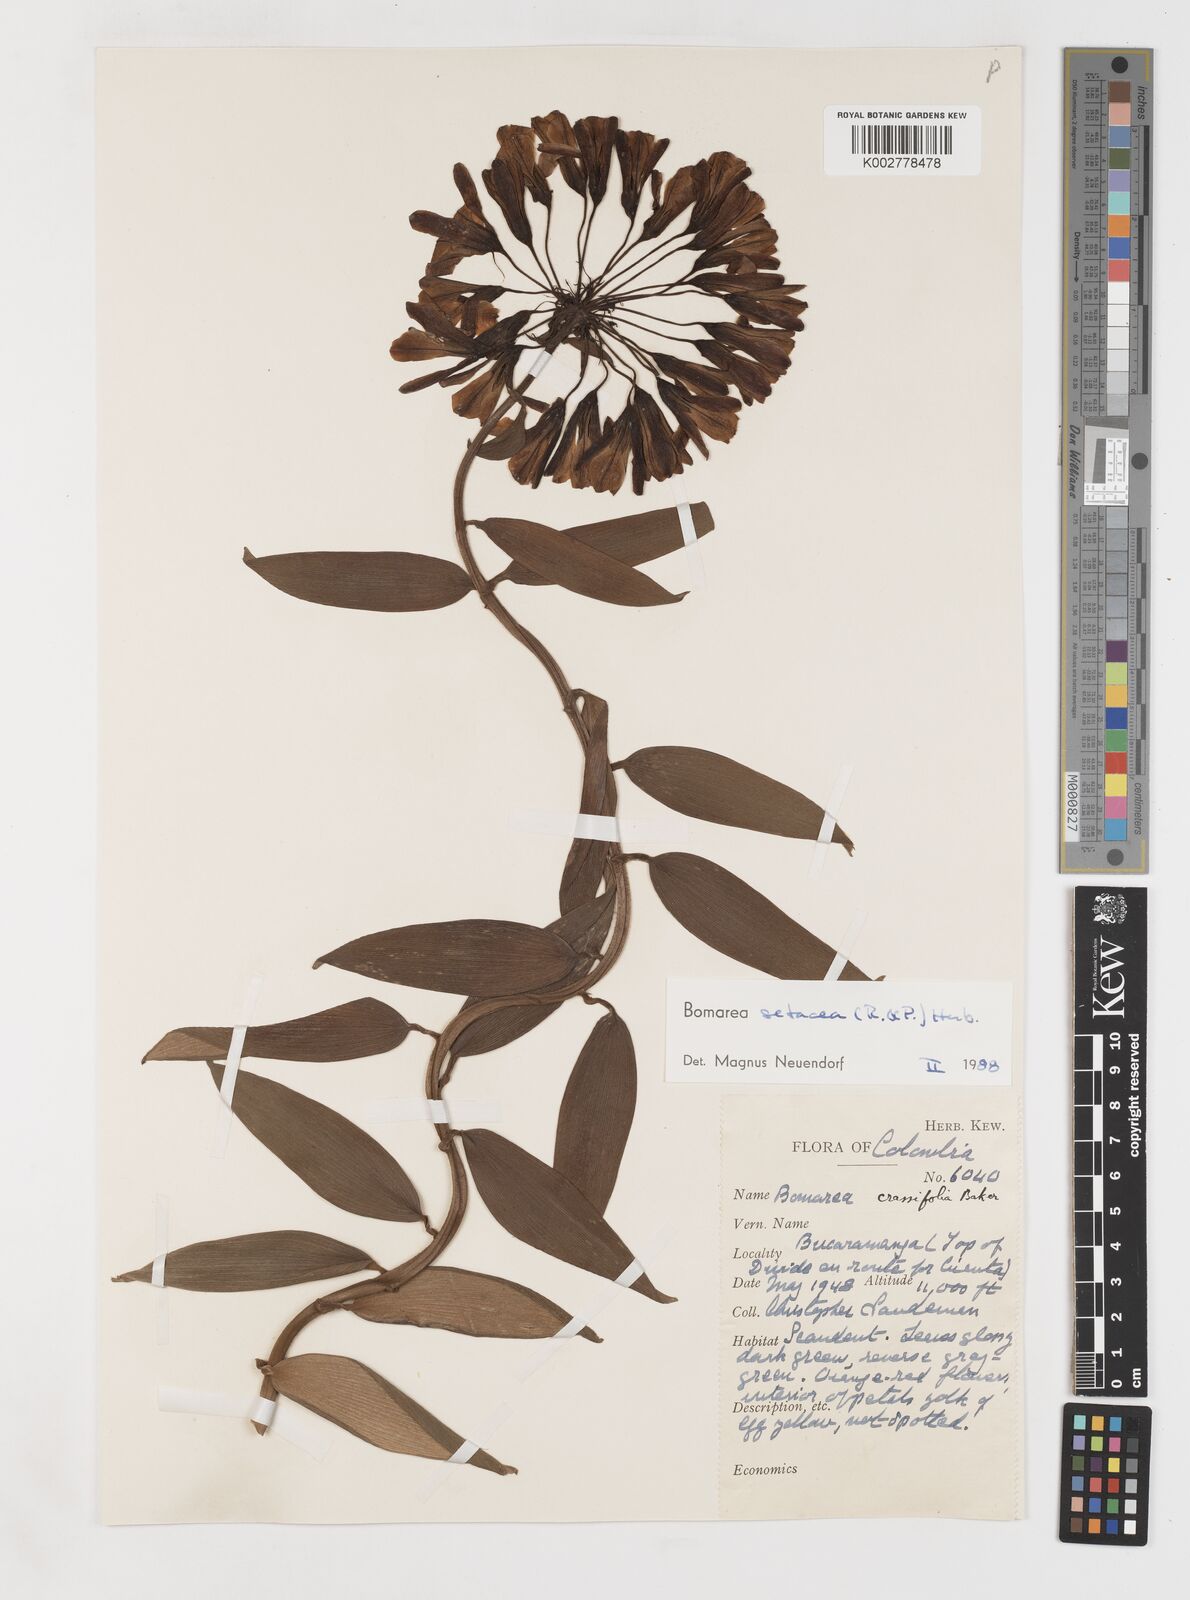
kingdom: Plantae
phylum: Tracheophyta
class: Liliopsida
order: Liliales
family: Alstroemeriaceae
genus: Bomarea
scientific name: Bomarea setacea
